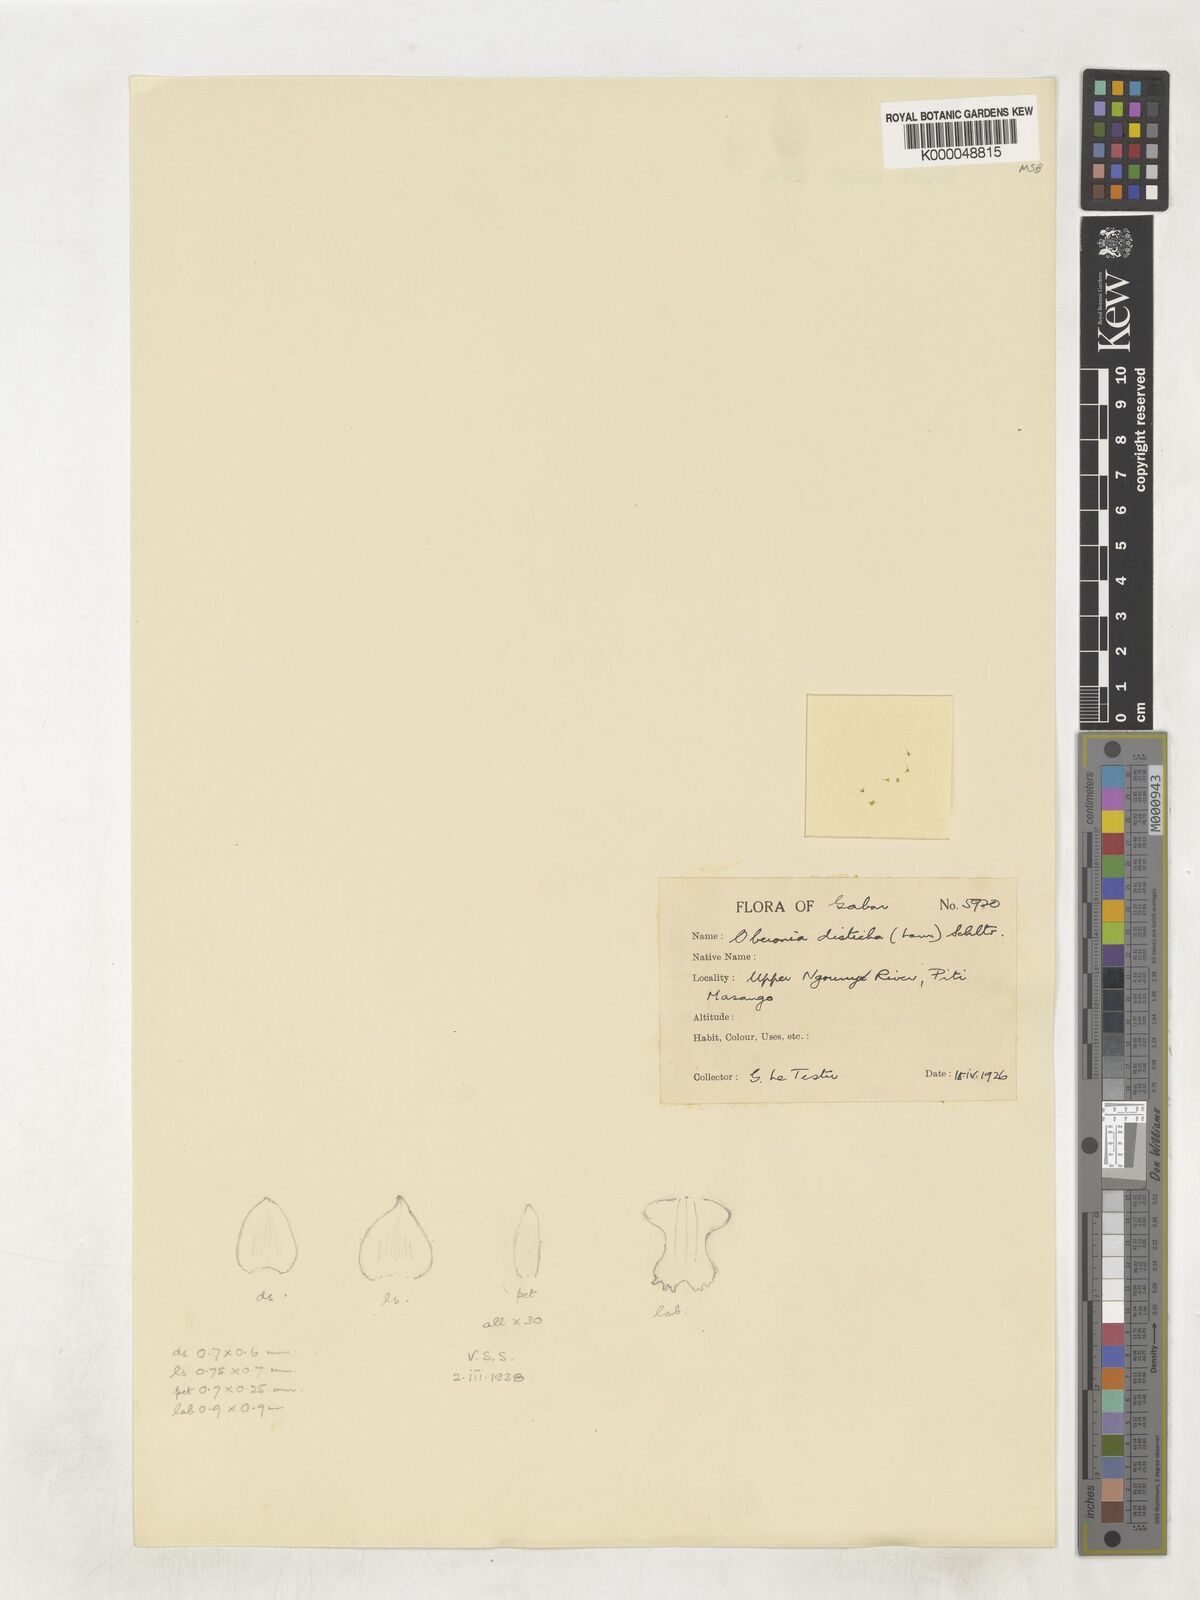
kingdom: Plantae
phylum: Tracheophyta
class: Liliopsida
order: Asparagales
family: Orchidaceae
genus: Oberonia
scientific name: Oberonia disticha
